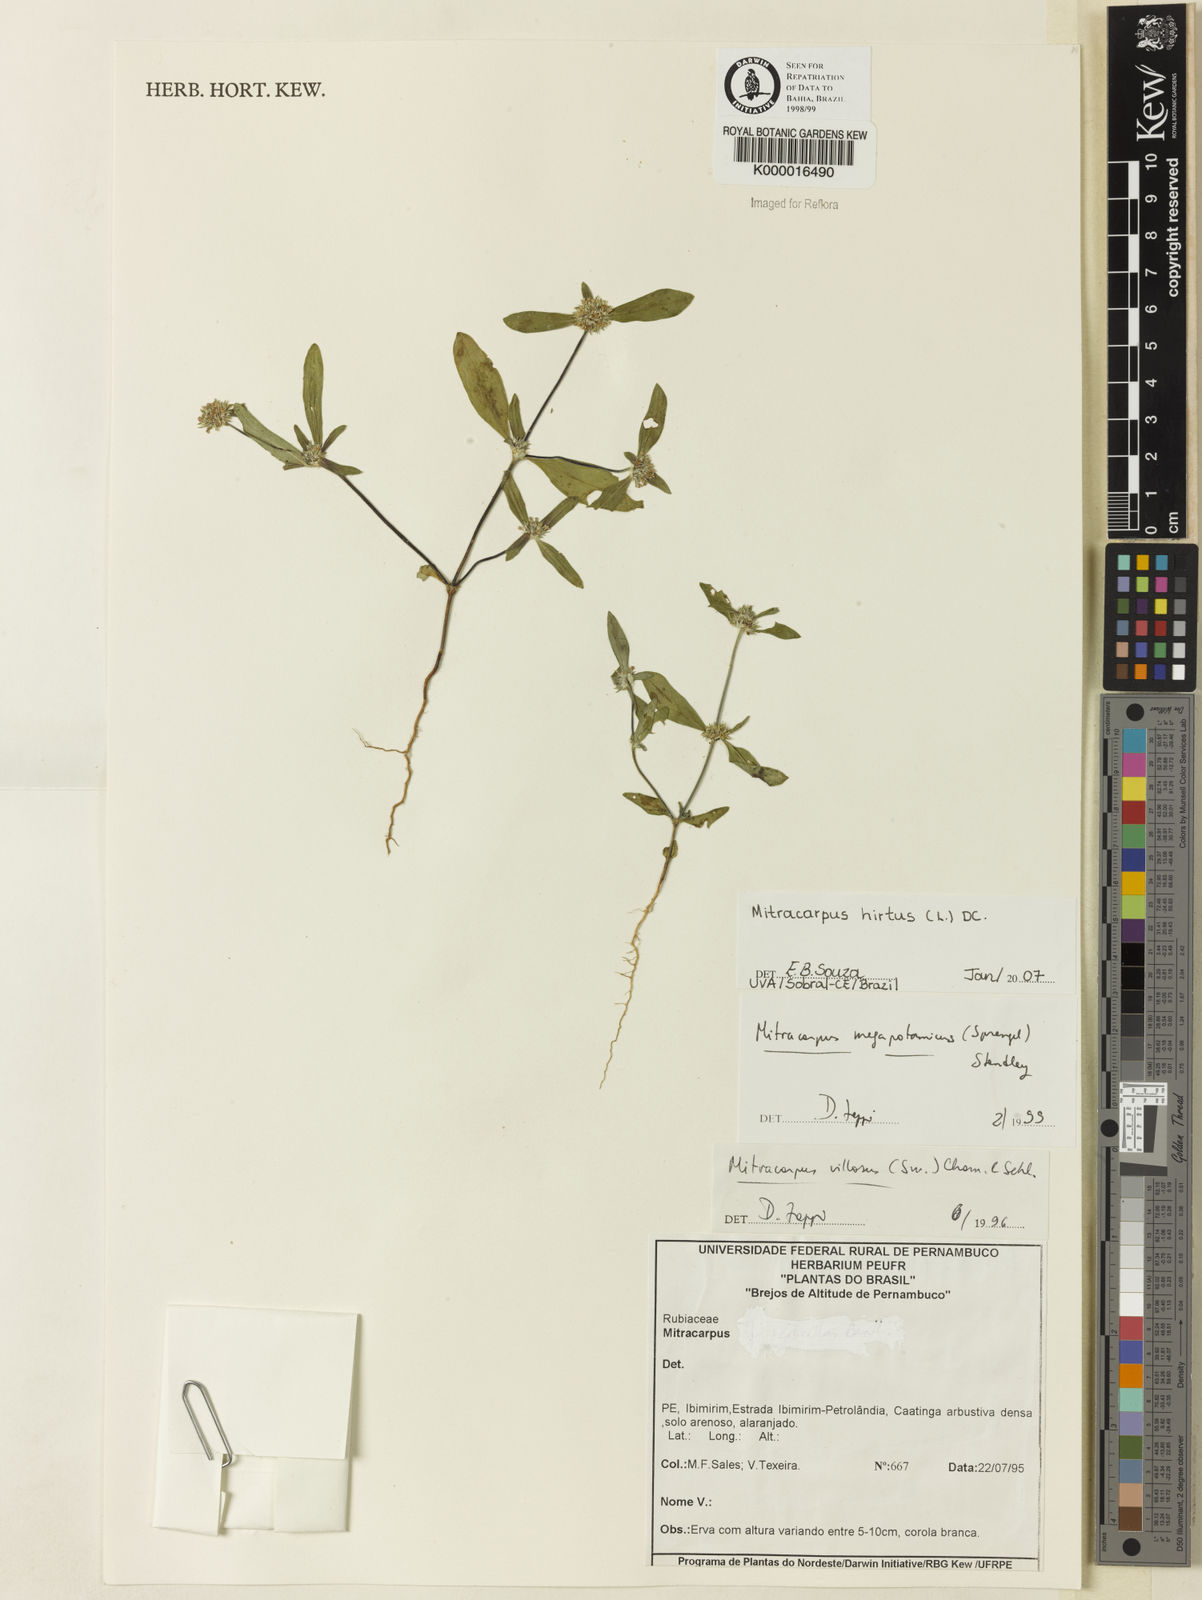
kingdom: Plantae
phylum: Tracheophyta
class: Magnoliopsida
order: Gentianales
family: Rubiaceae
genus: Mitracarpus
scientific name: Mitracarpus hirtus
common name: Tropical girdlepod
